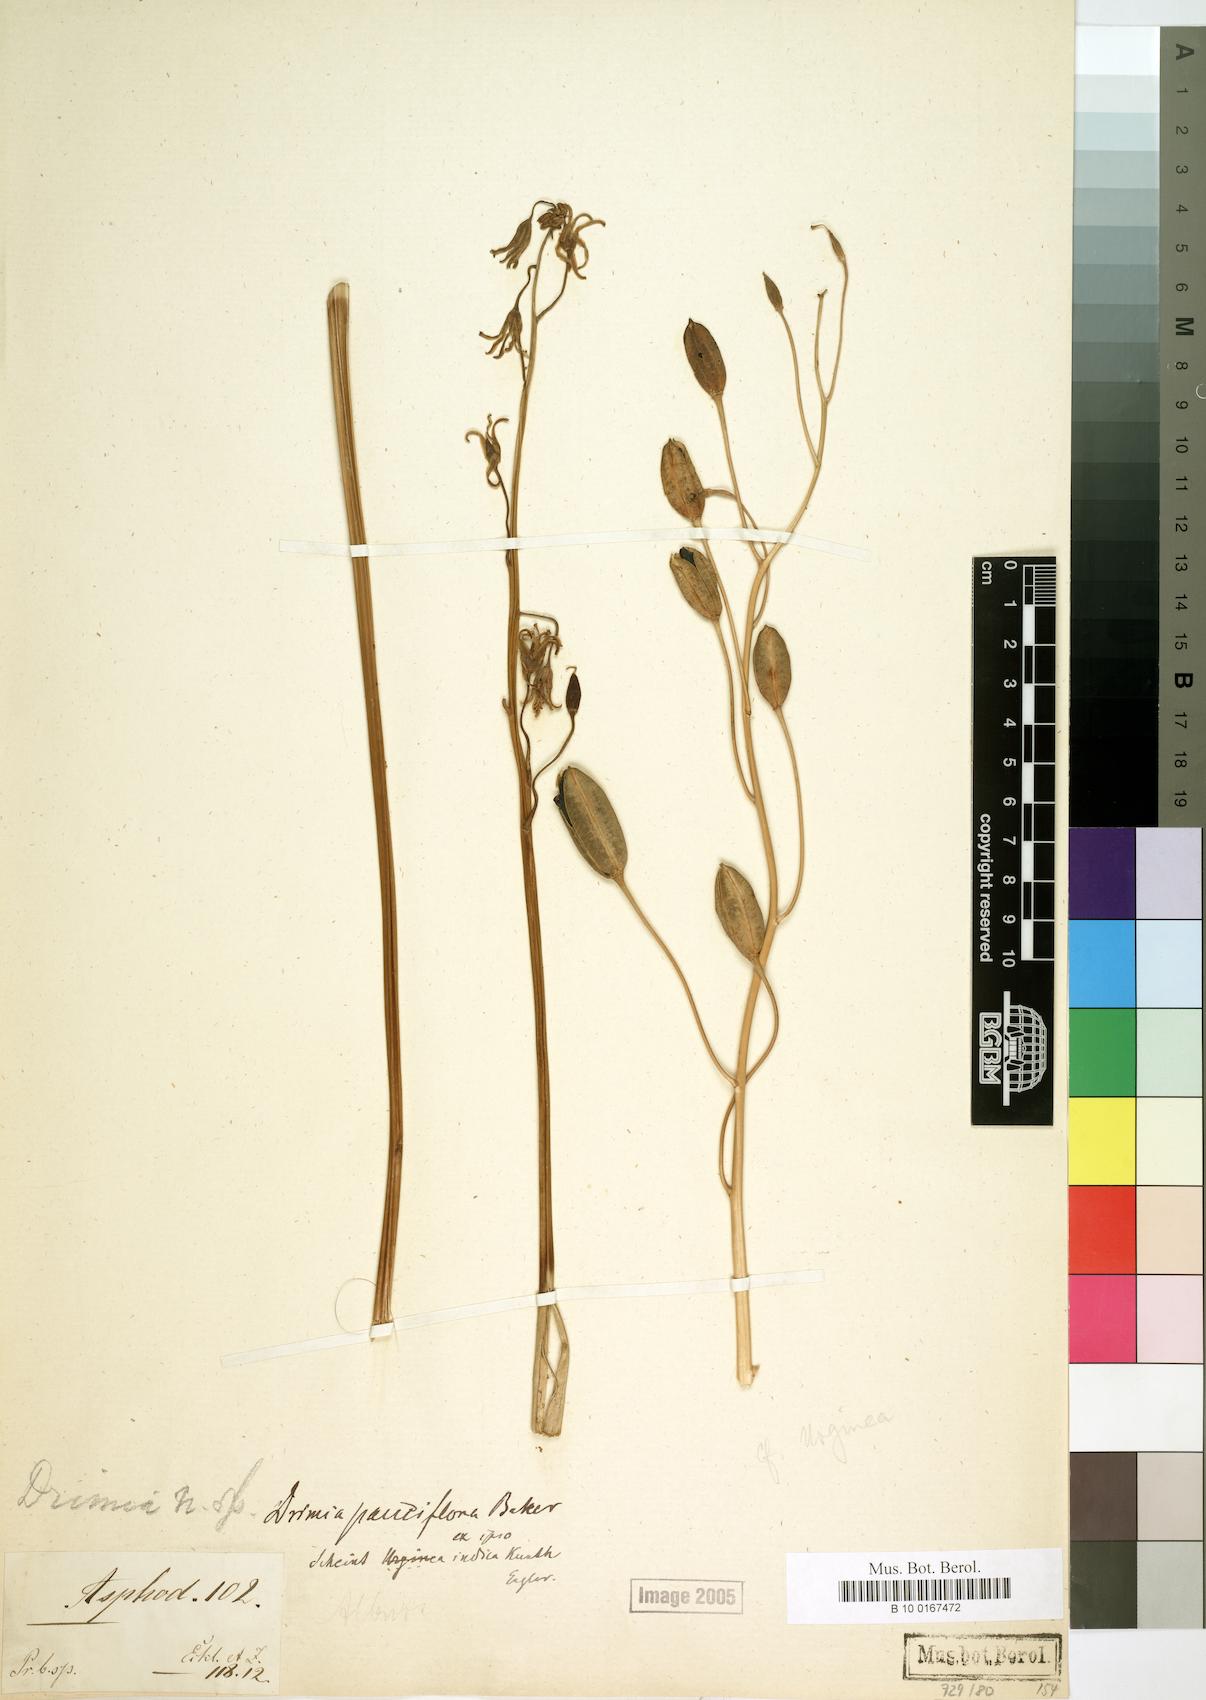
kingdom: Plantae
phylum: Tracheophyta
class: Liliopsida
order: Asparagales
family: Asparagaceae
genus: Drimia
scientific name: Drimia pauciflora
